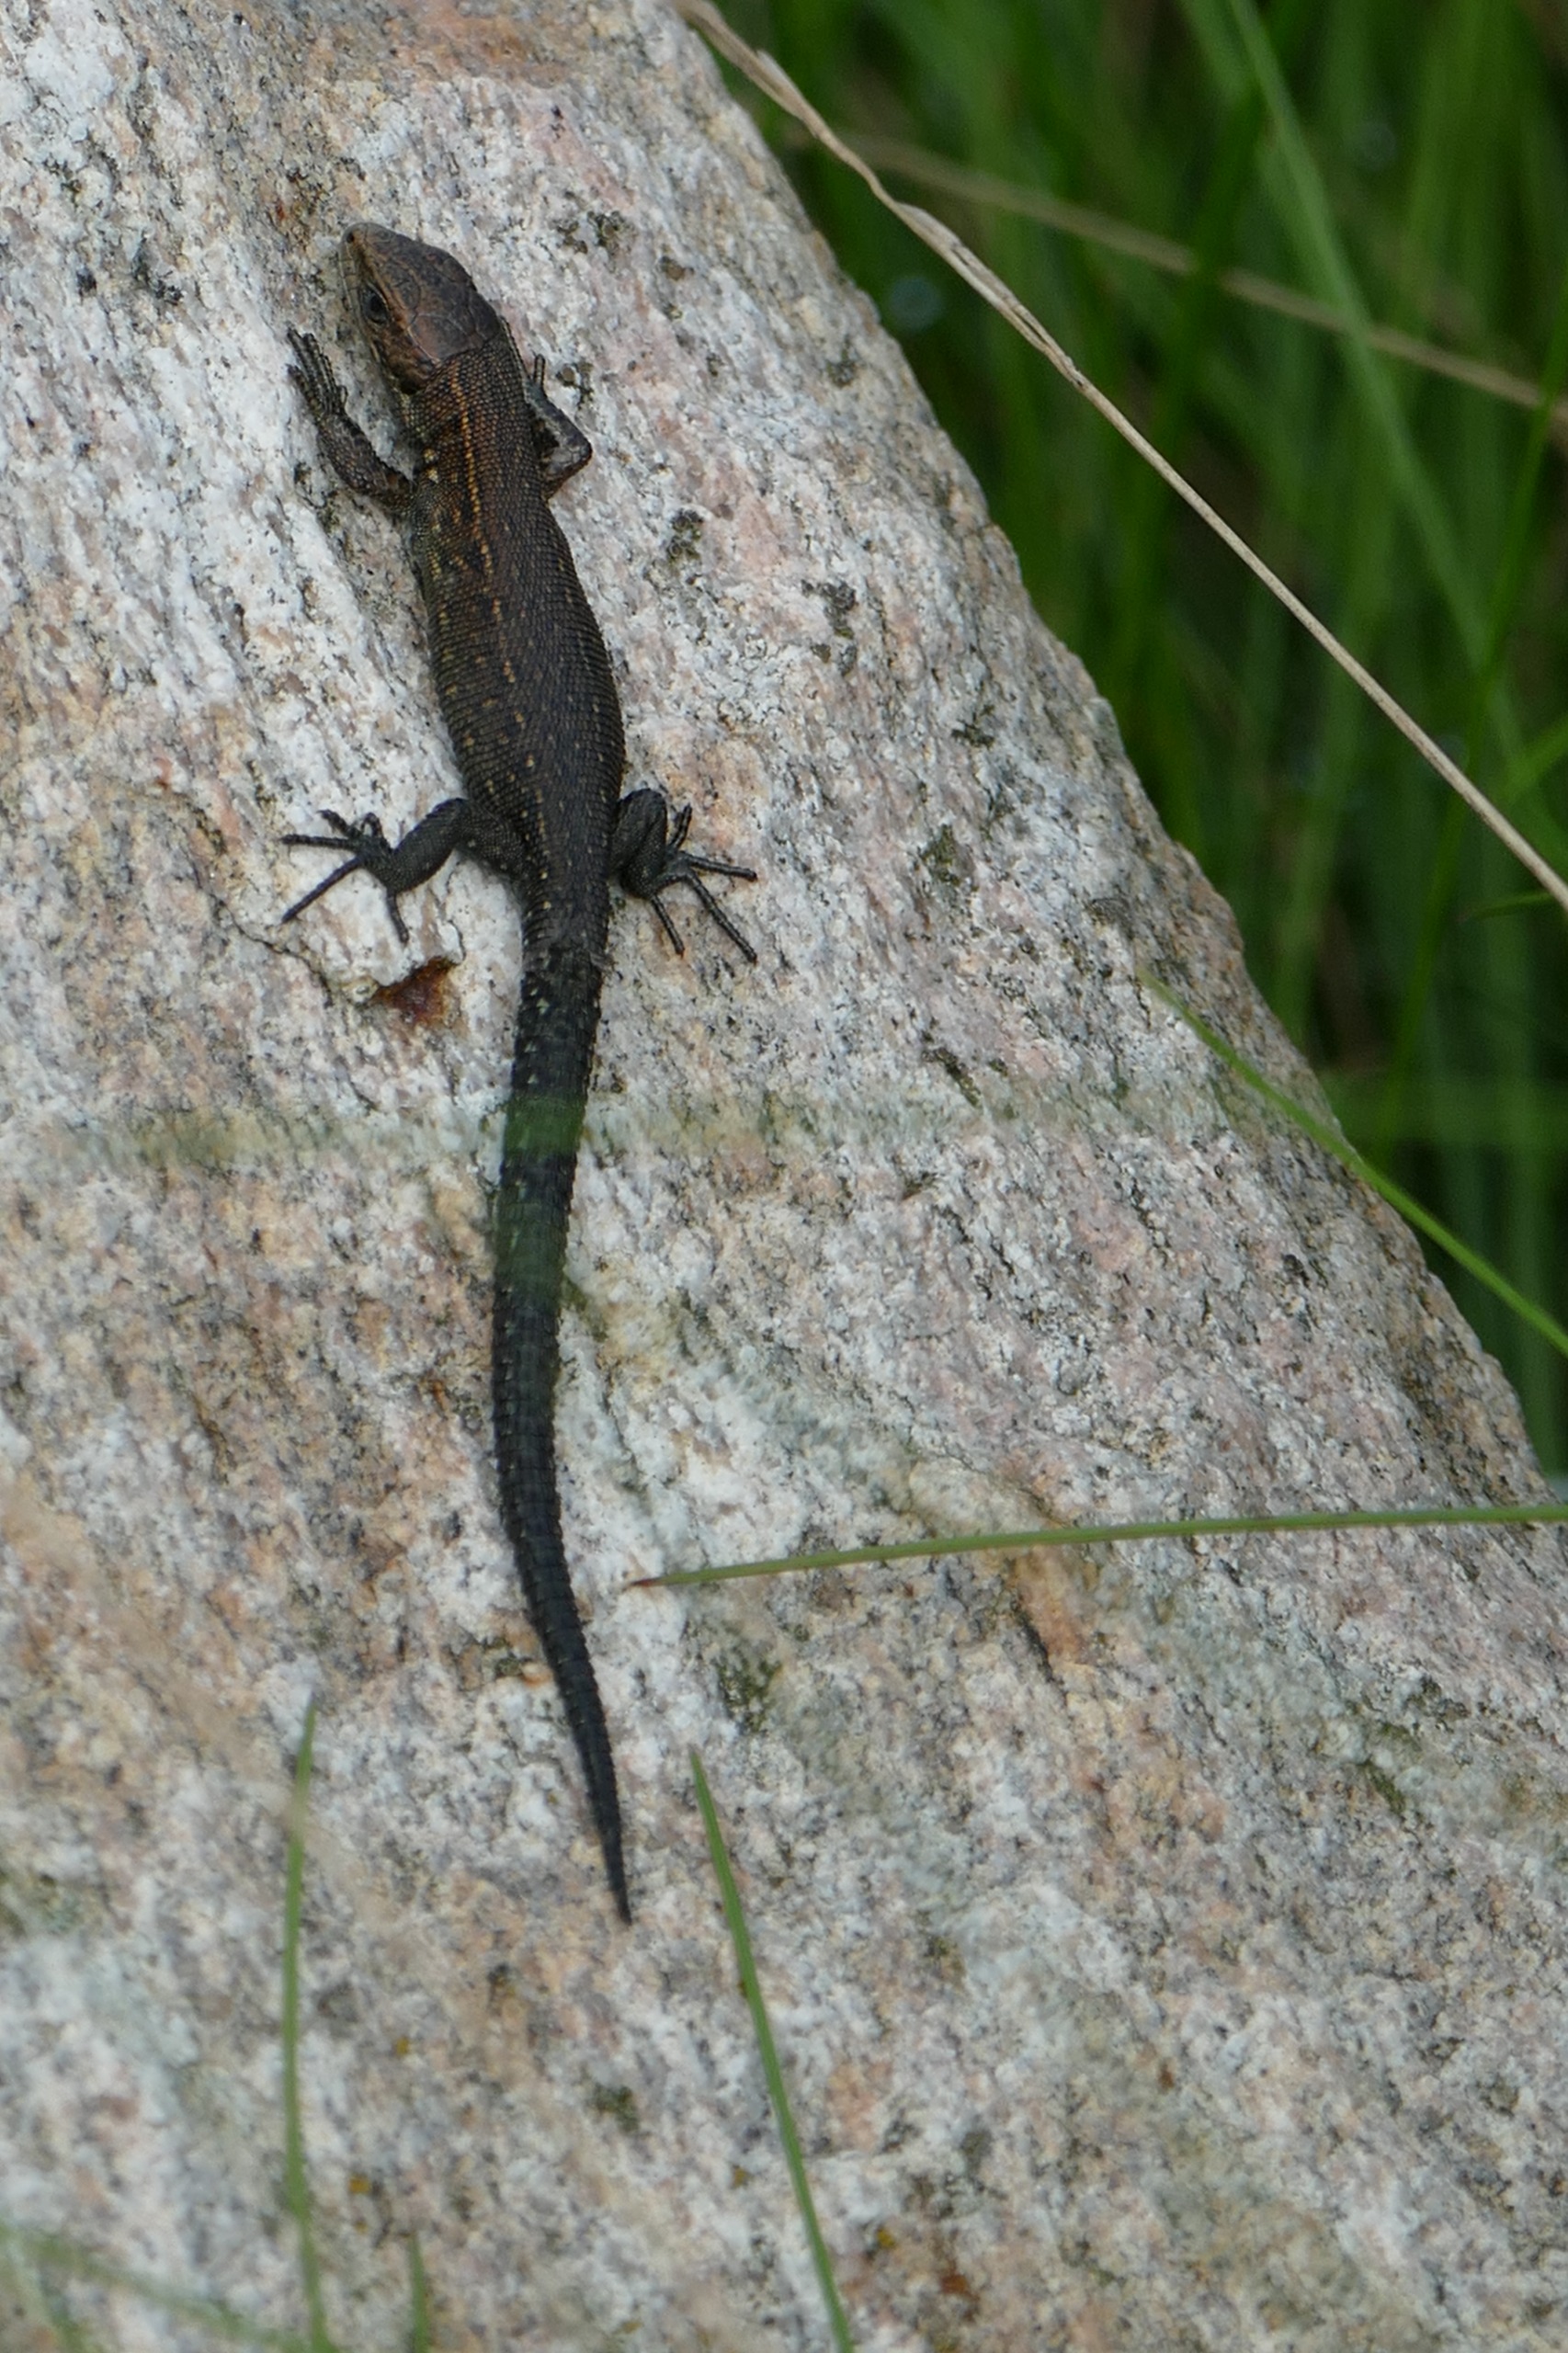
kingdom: Animalia
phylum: Chordata
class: Squamata
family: Lacertidae
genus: Zootoca
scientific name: Zootoca vivipara
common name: Skovfirben
